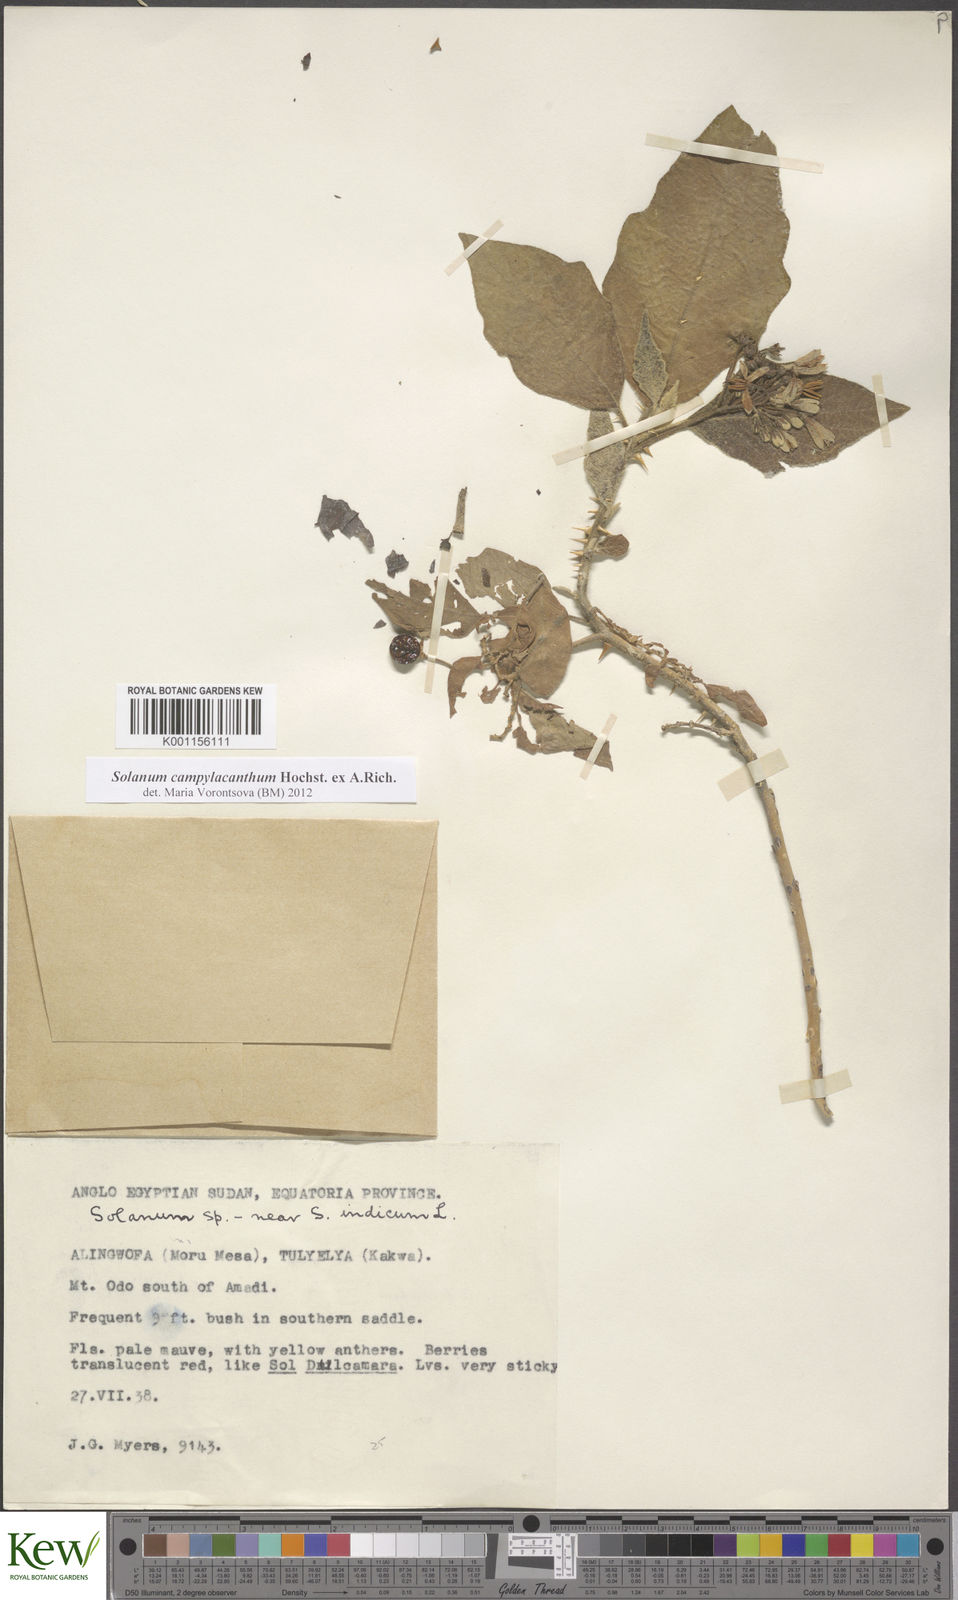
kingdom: Plantae
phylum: Tracheophyta
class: Magnoliopsida
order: Solanales
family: Solanaceae
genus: Solanum
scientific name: Solanum campylacanthum
